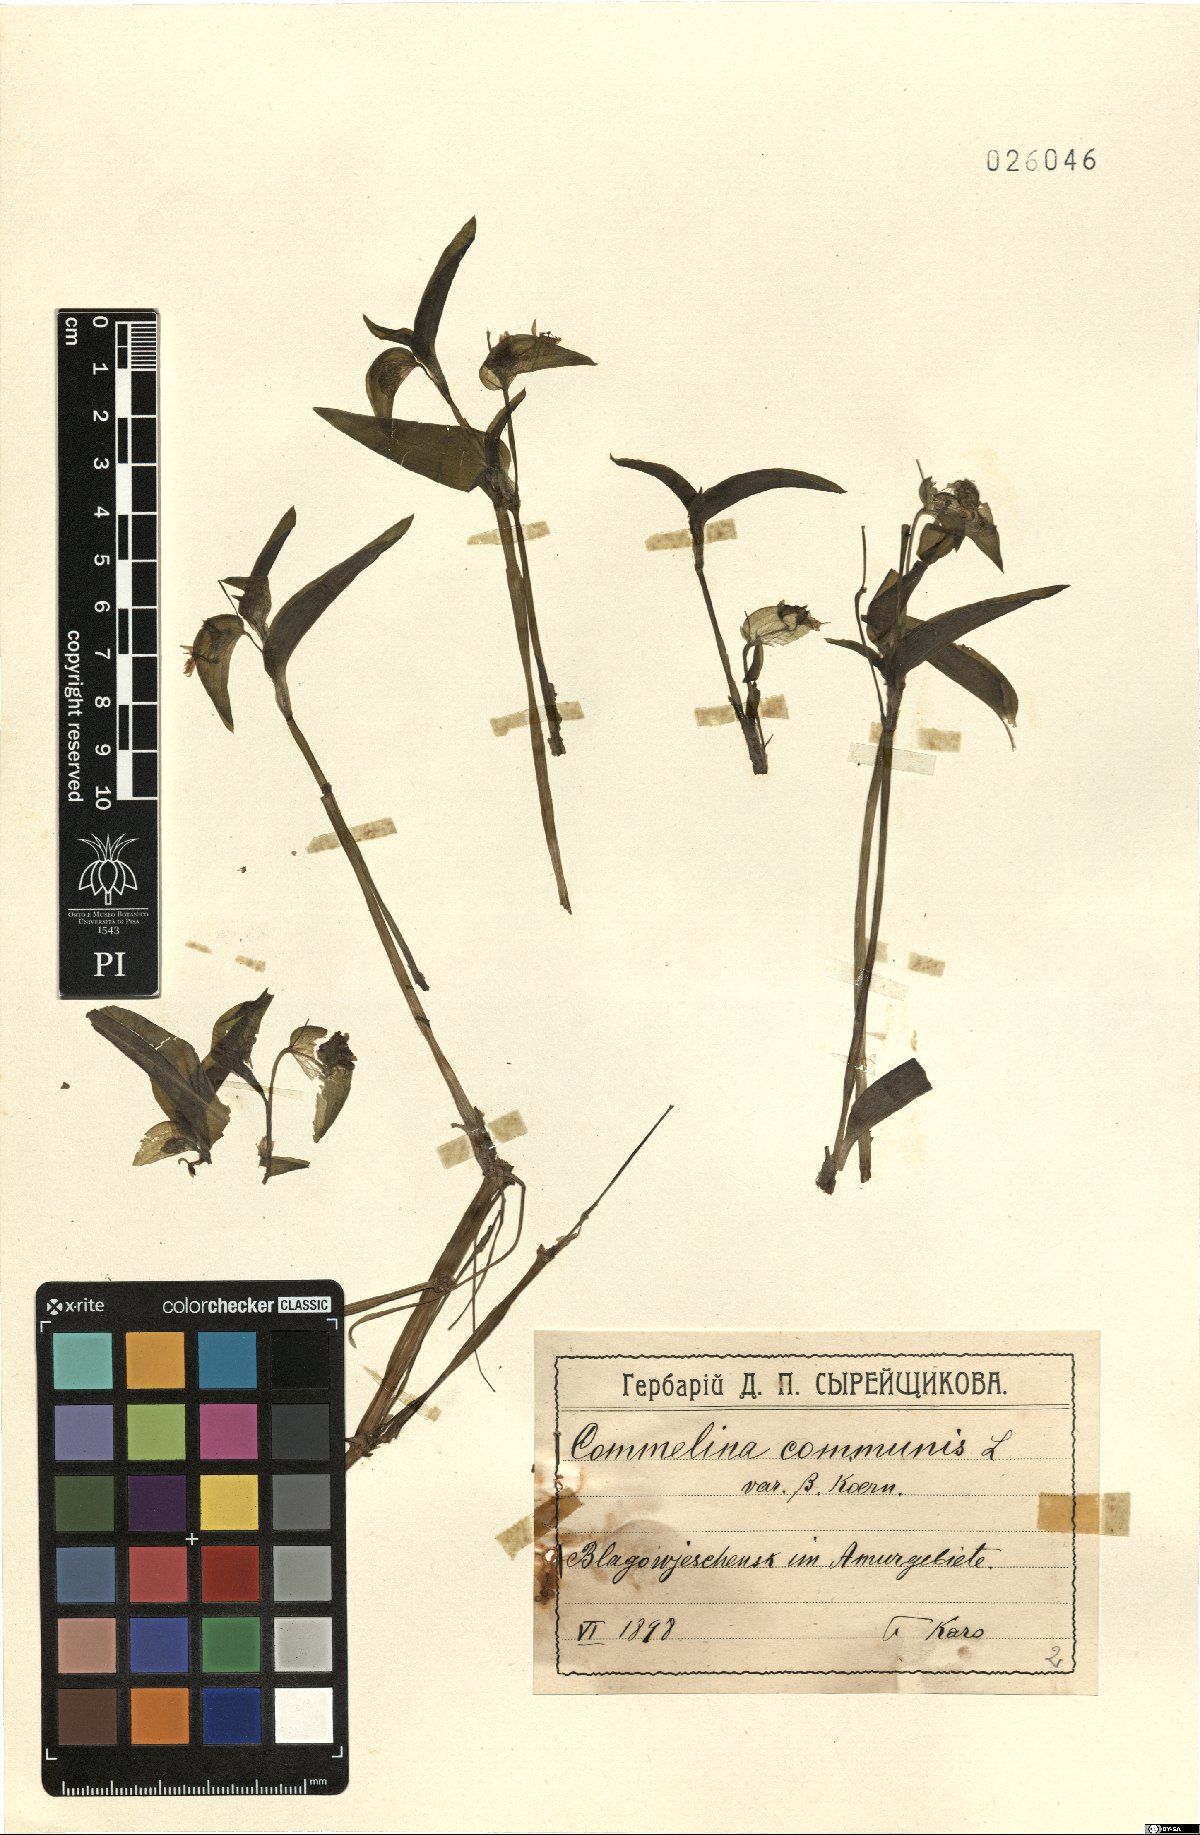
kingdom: Plantae
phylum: Tracheophyta
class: Liliopsida
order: Commelinales
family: Commelinaceae
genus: Commelina
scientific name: Commelina communis
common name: Asiatic dayflower
